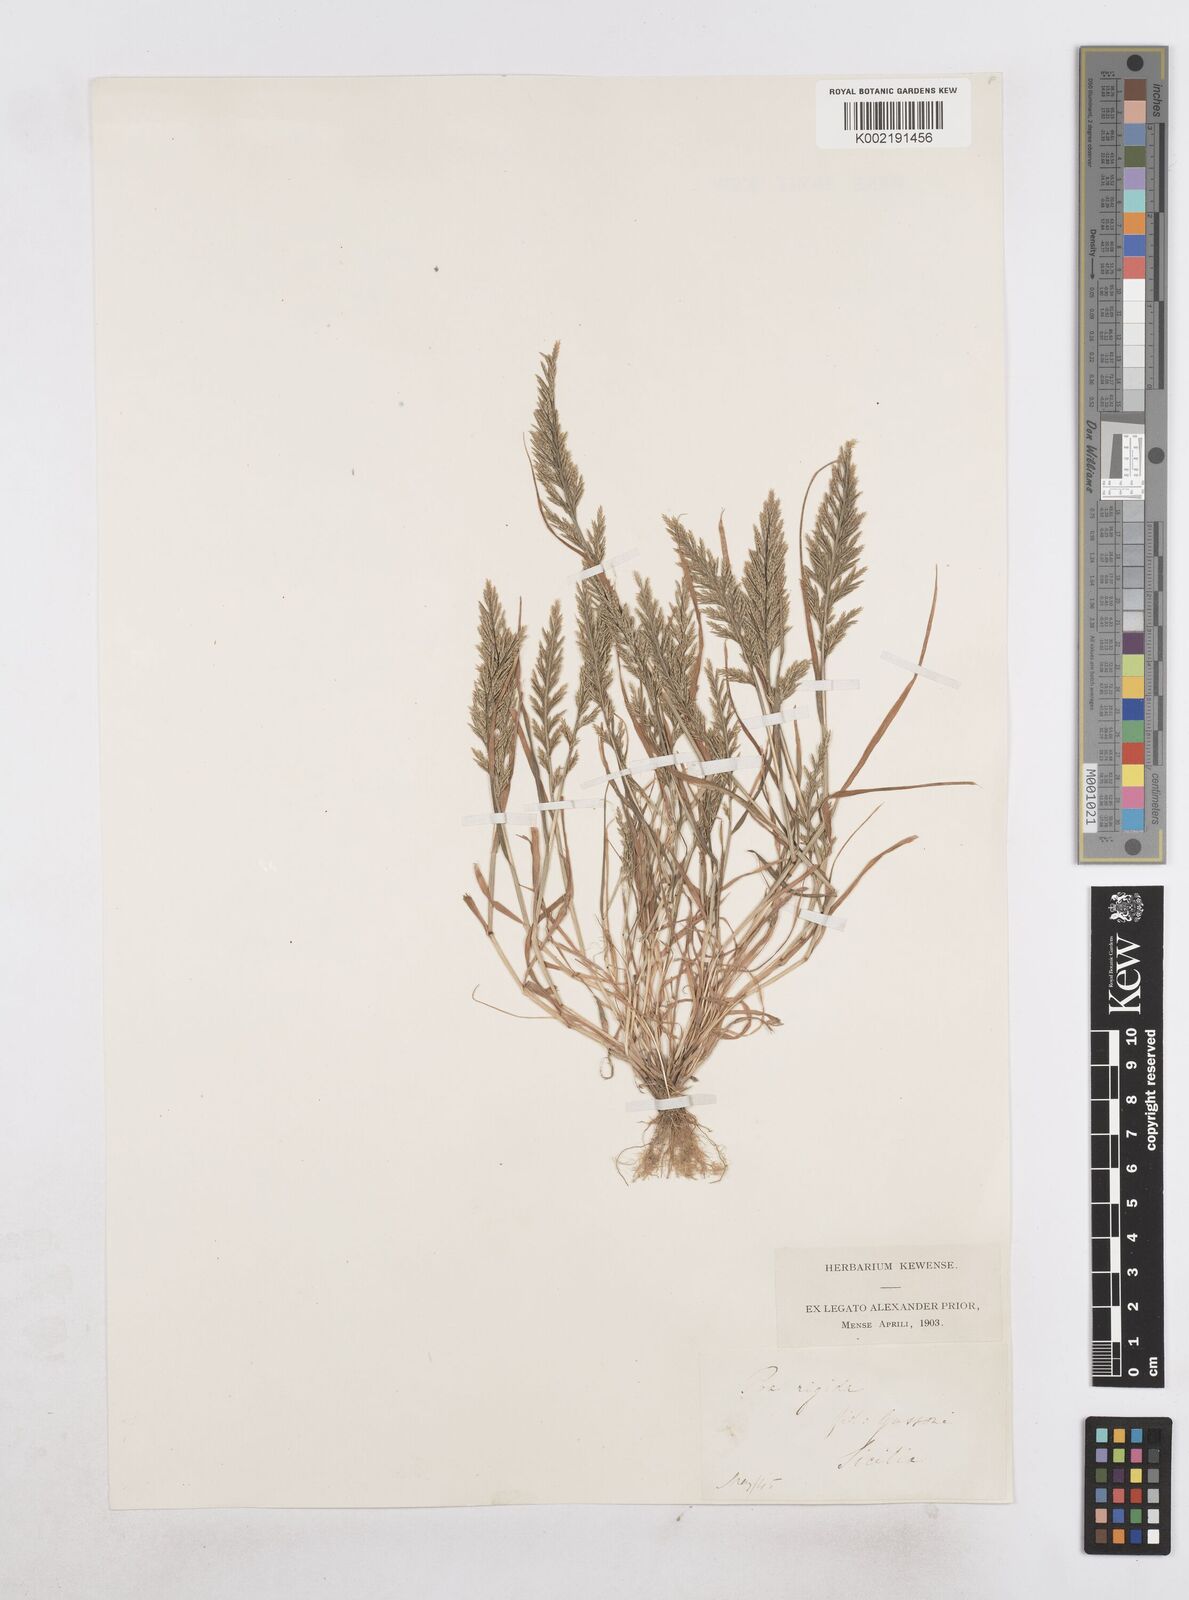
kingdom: Plantae
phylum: Tracheophyta
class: Liliopsida
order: Poales
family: Poaceae
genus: Catapodium
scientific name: Catapodium rigidum
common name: Fern-grass
